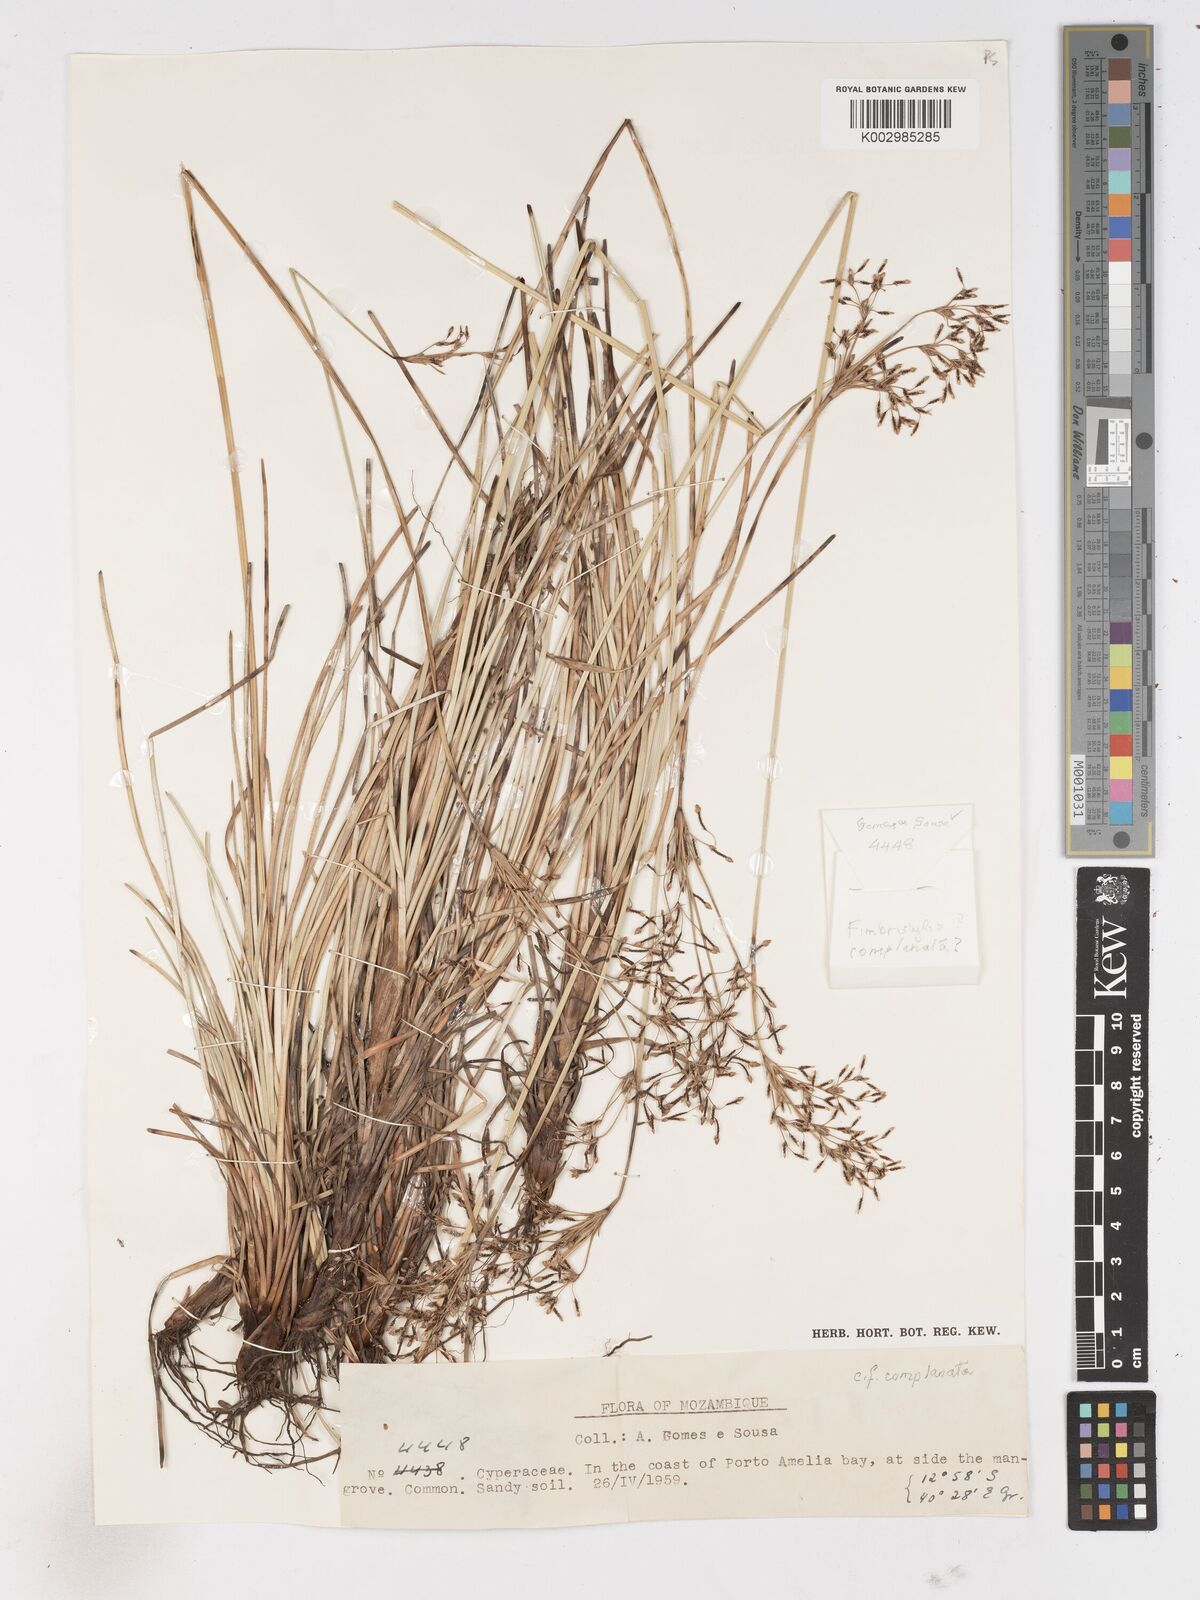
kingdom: Plantae
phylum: Tracheophyta
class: Liliopsida
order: Poales
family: Cyperaceae
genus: Fimbristylis
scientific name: Fimbristylis complanata
